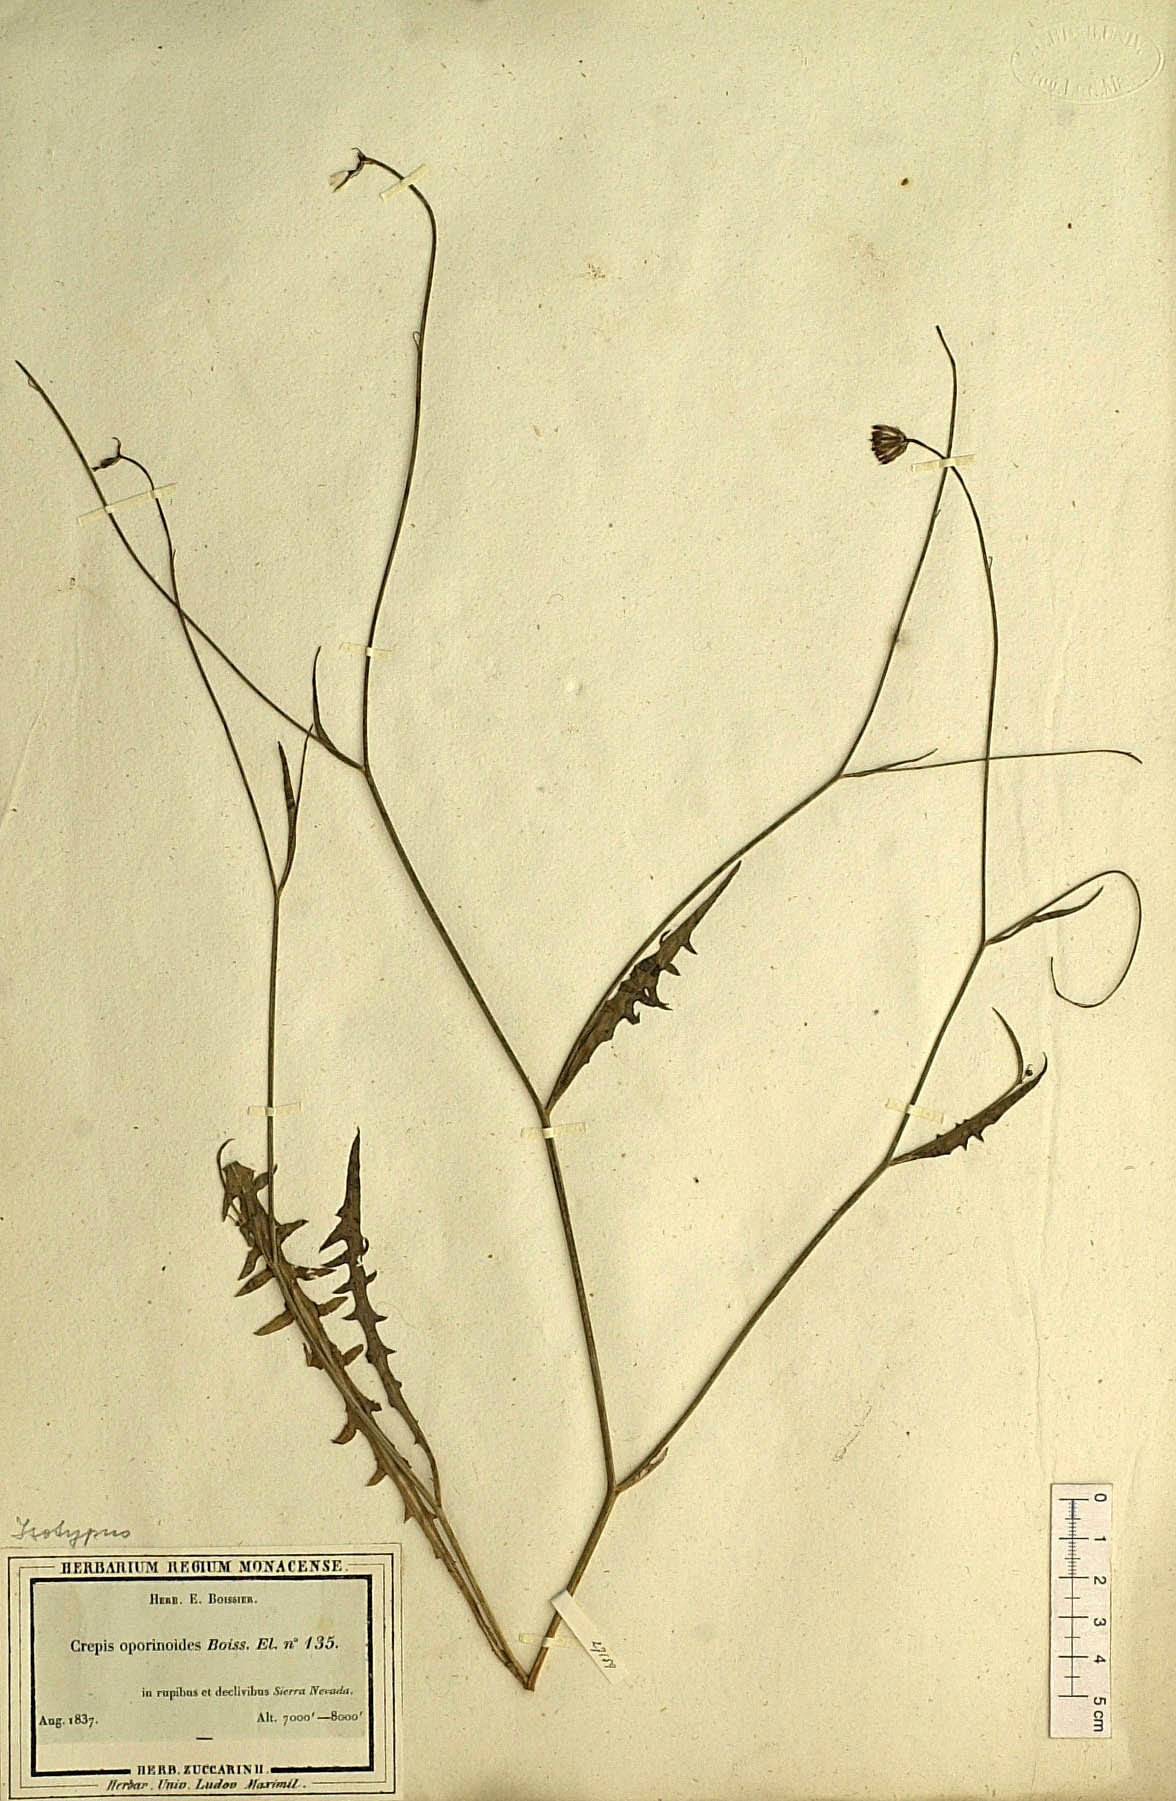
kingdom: Plantae
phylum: Tracheophyta
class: Magnoliopsida
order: Asterales
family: Asteraceae
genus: Crepis
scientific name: Crepis oporinoides
